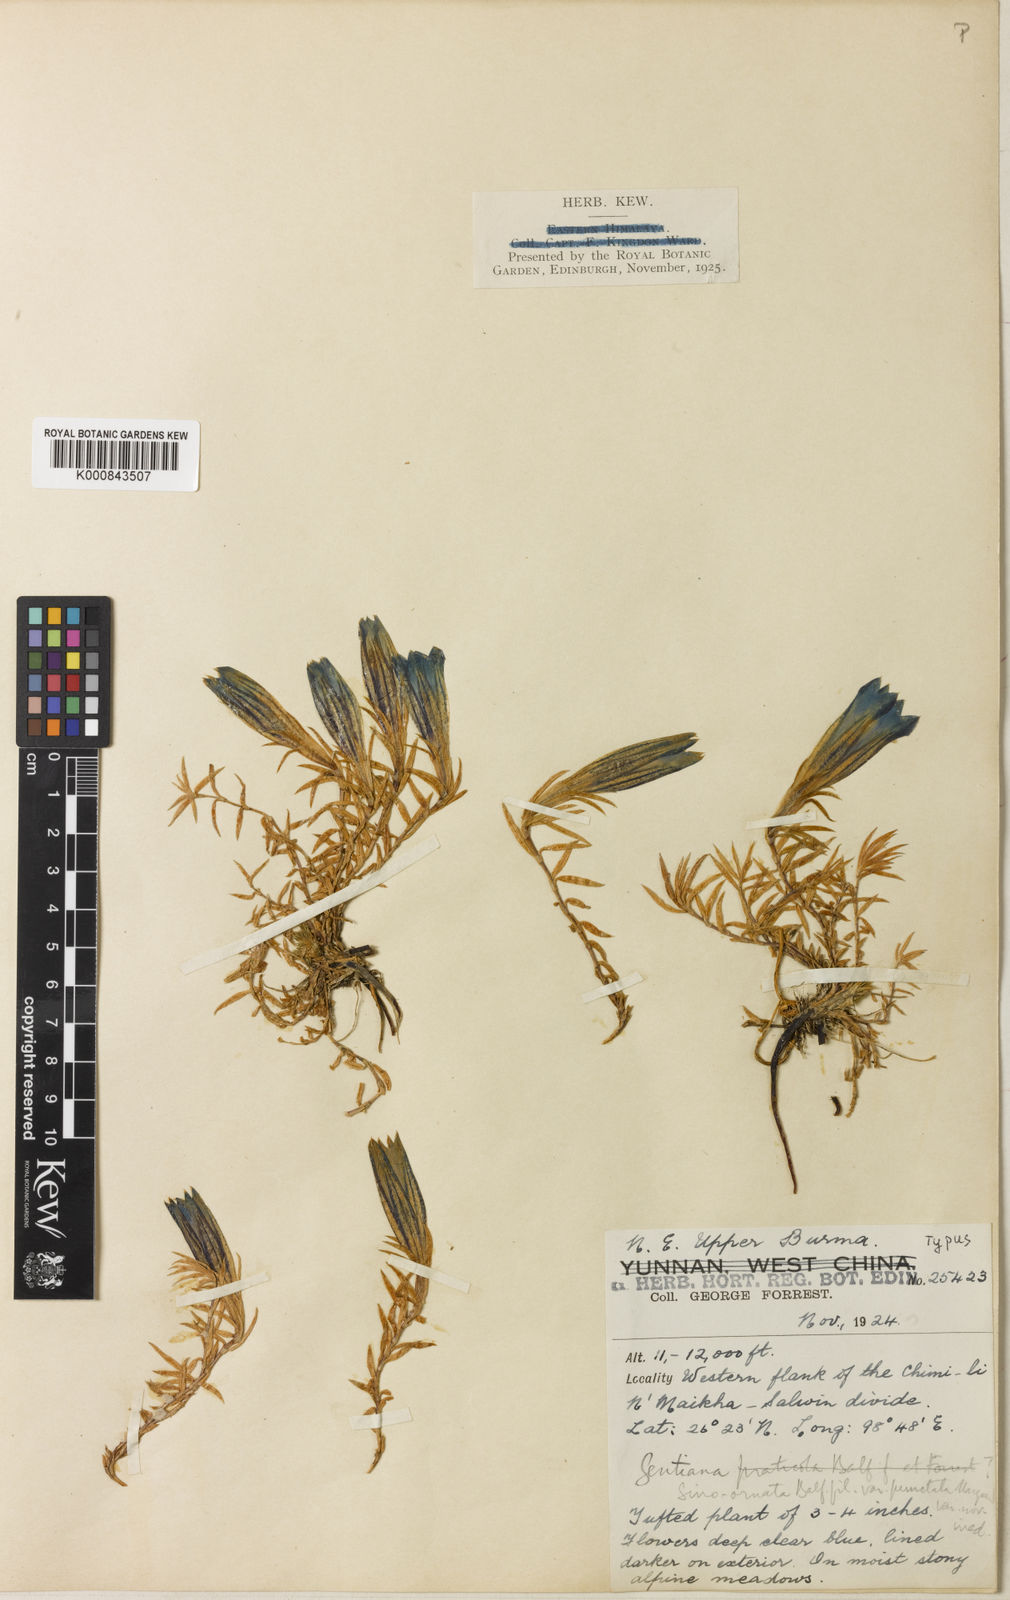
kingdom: Plantae
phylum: Tracheophyta
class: Magnoliopsida
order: Gentianales
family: Gentianaceae
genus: Gentiana
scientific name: Gentiana
